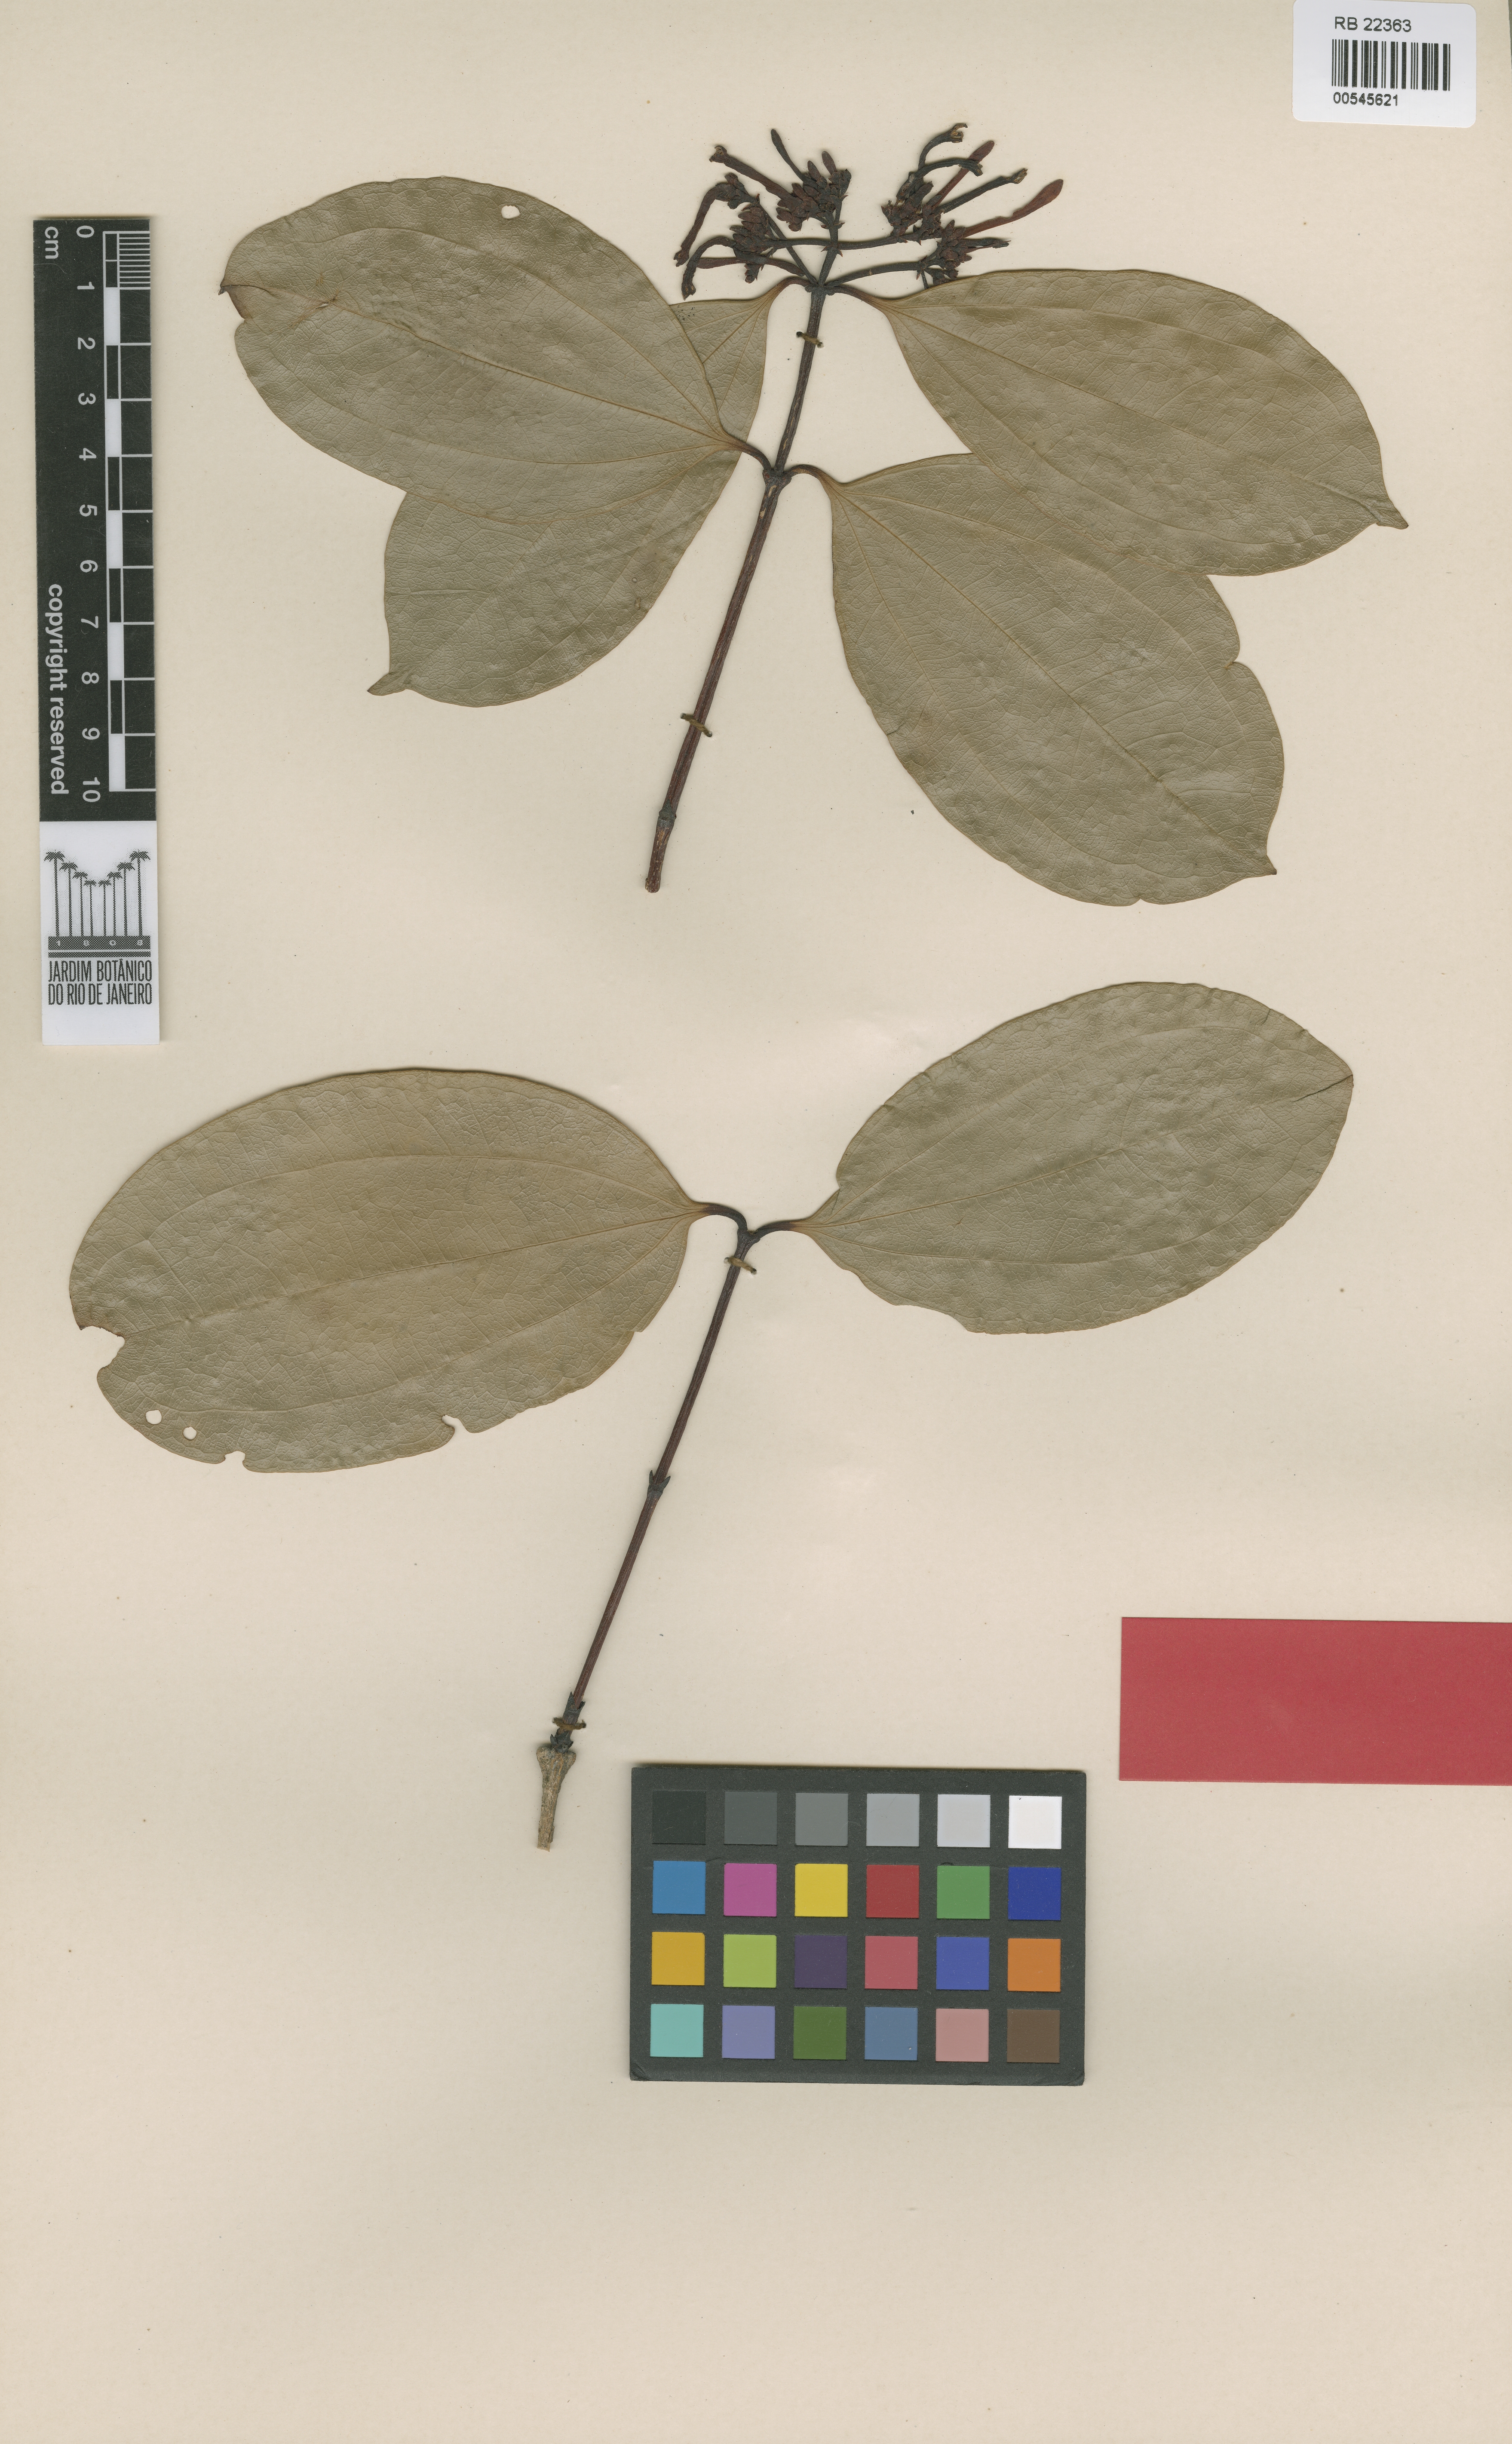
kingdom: Plantae
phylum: Tracheophyta
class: Magnoliopsida
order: Gentianales
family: Loganiaceae
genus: Strychnos
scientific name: Strychnos ramentifera
